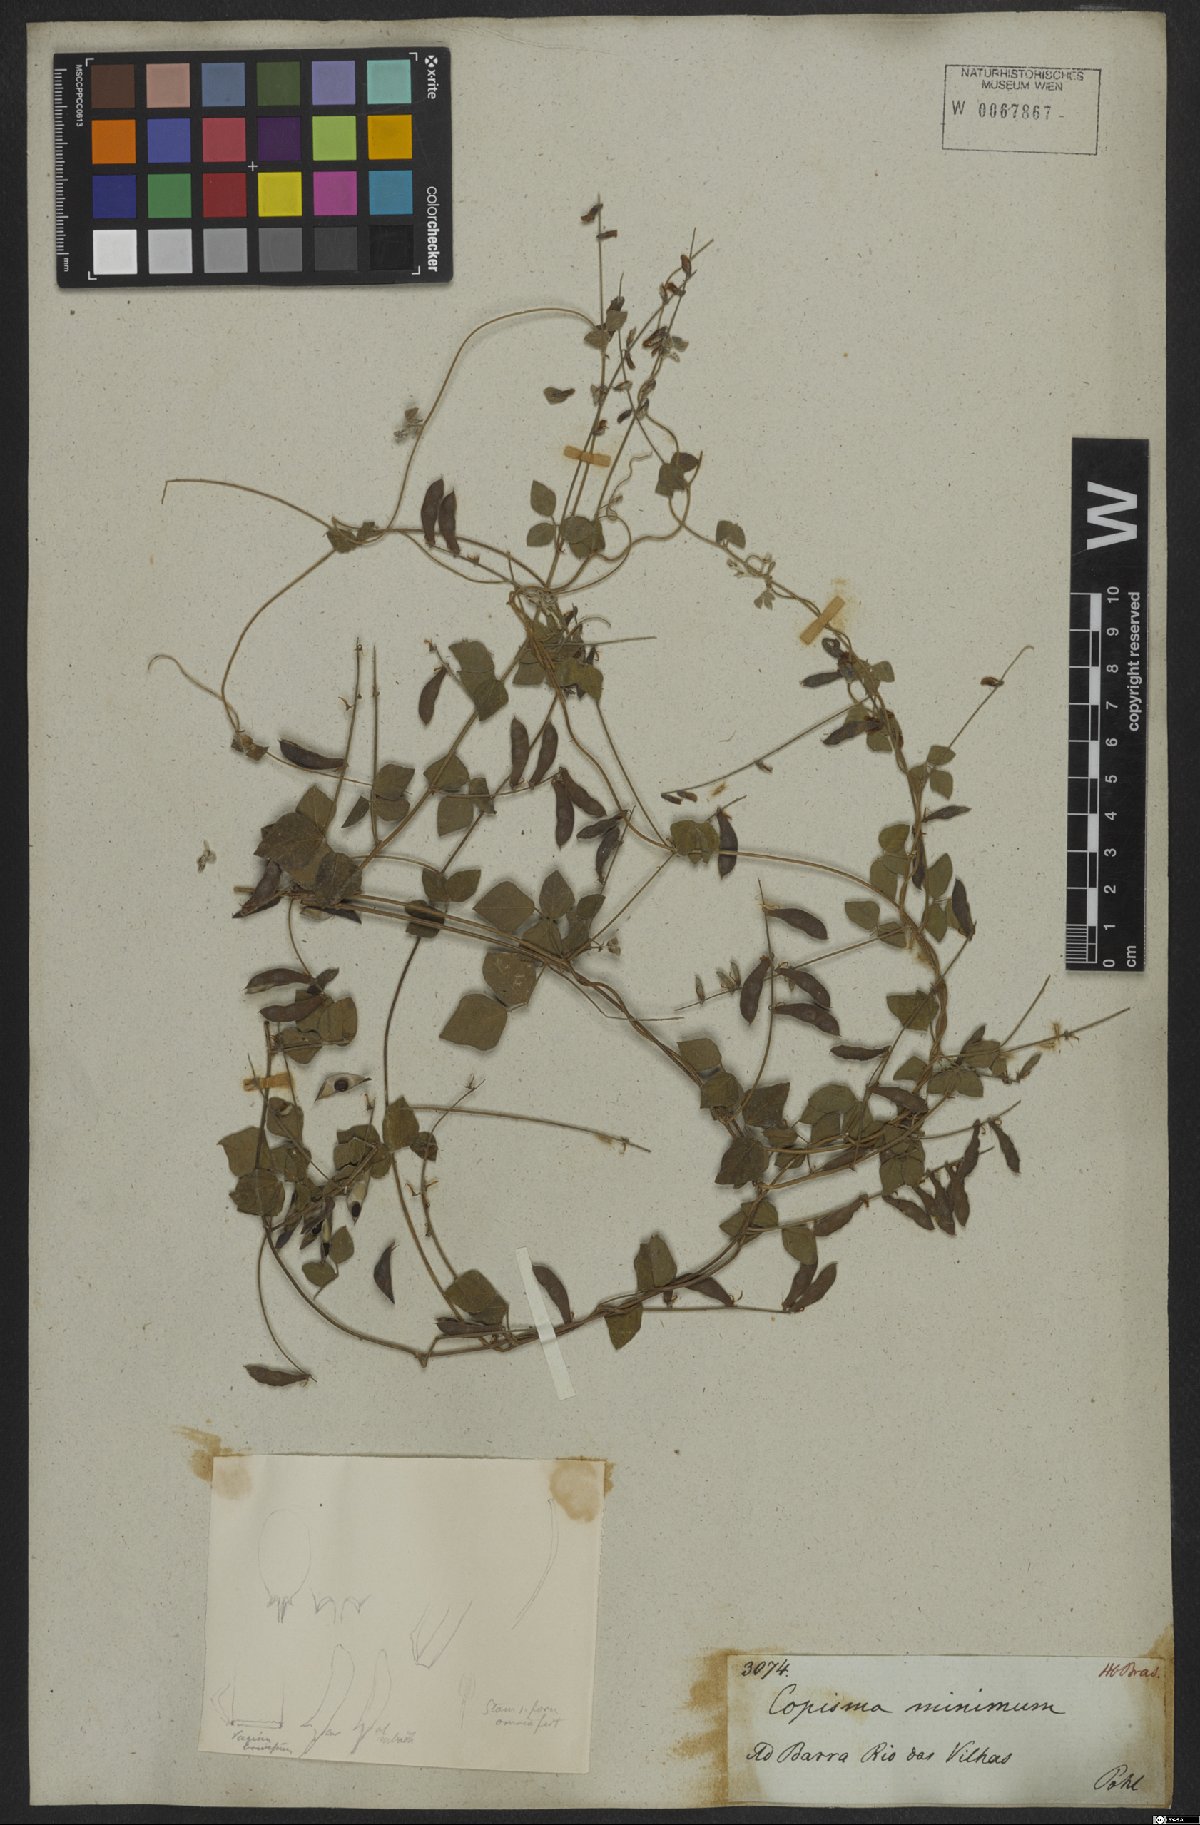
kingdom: Plantae
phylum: Tracheophyta
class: Magnoliopsida
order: Fabales
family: Fabaceae
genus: Rhynchosia
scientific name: Rhynchosia minima
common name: Least snoutbean
